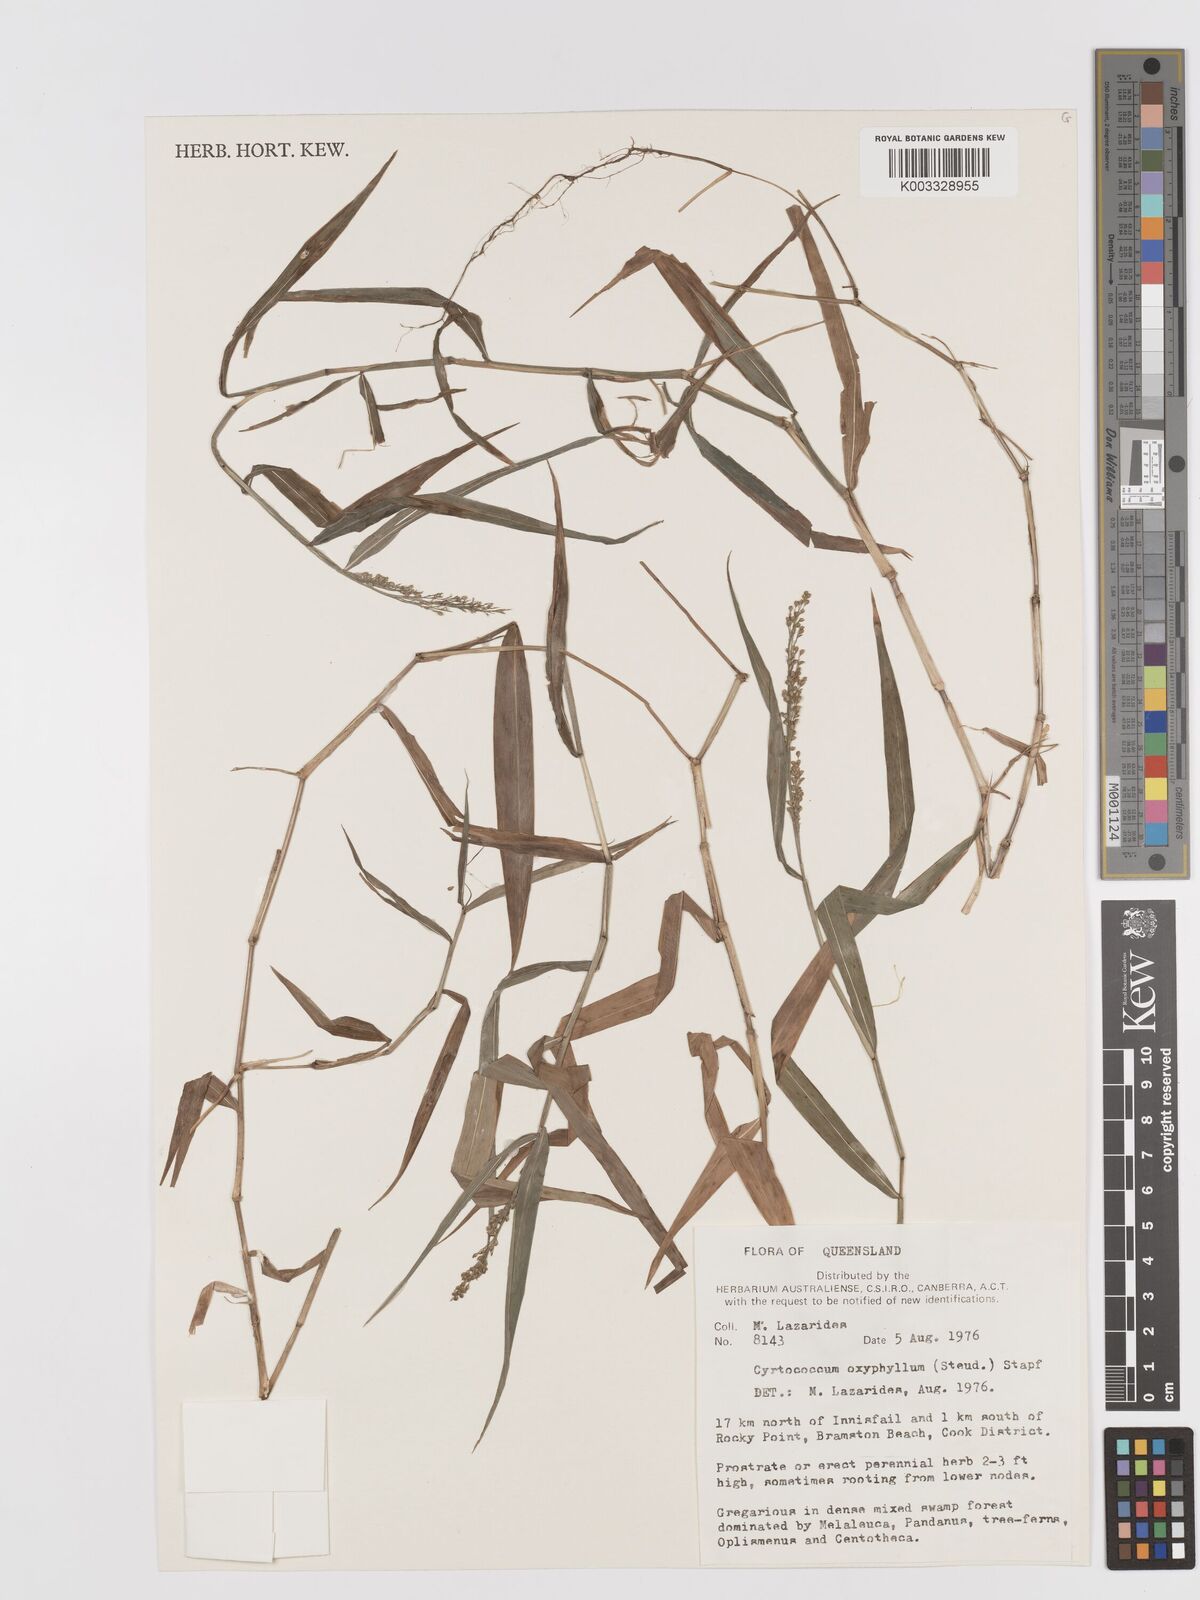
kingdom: Plantae
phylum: Tracheophyta
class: Liliopsida
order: Poales
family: Poaceae
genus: Cyrtococcum
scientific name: Cyrtococcum oxyphyllum
